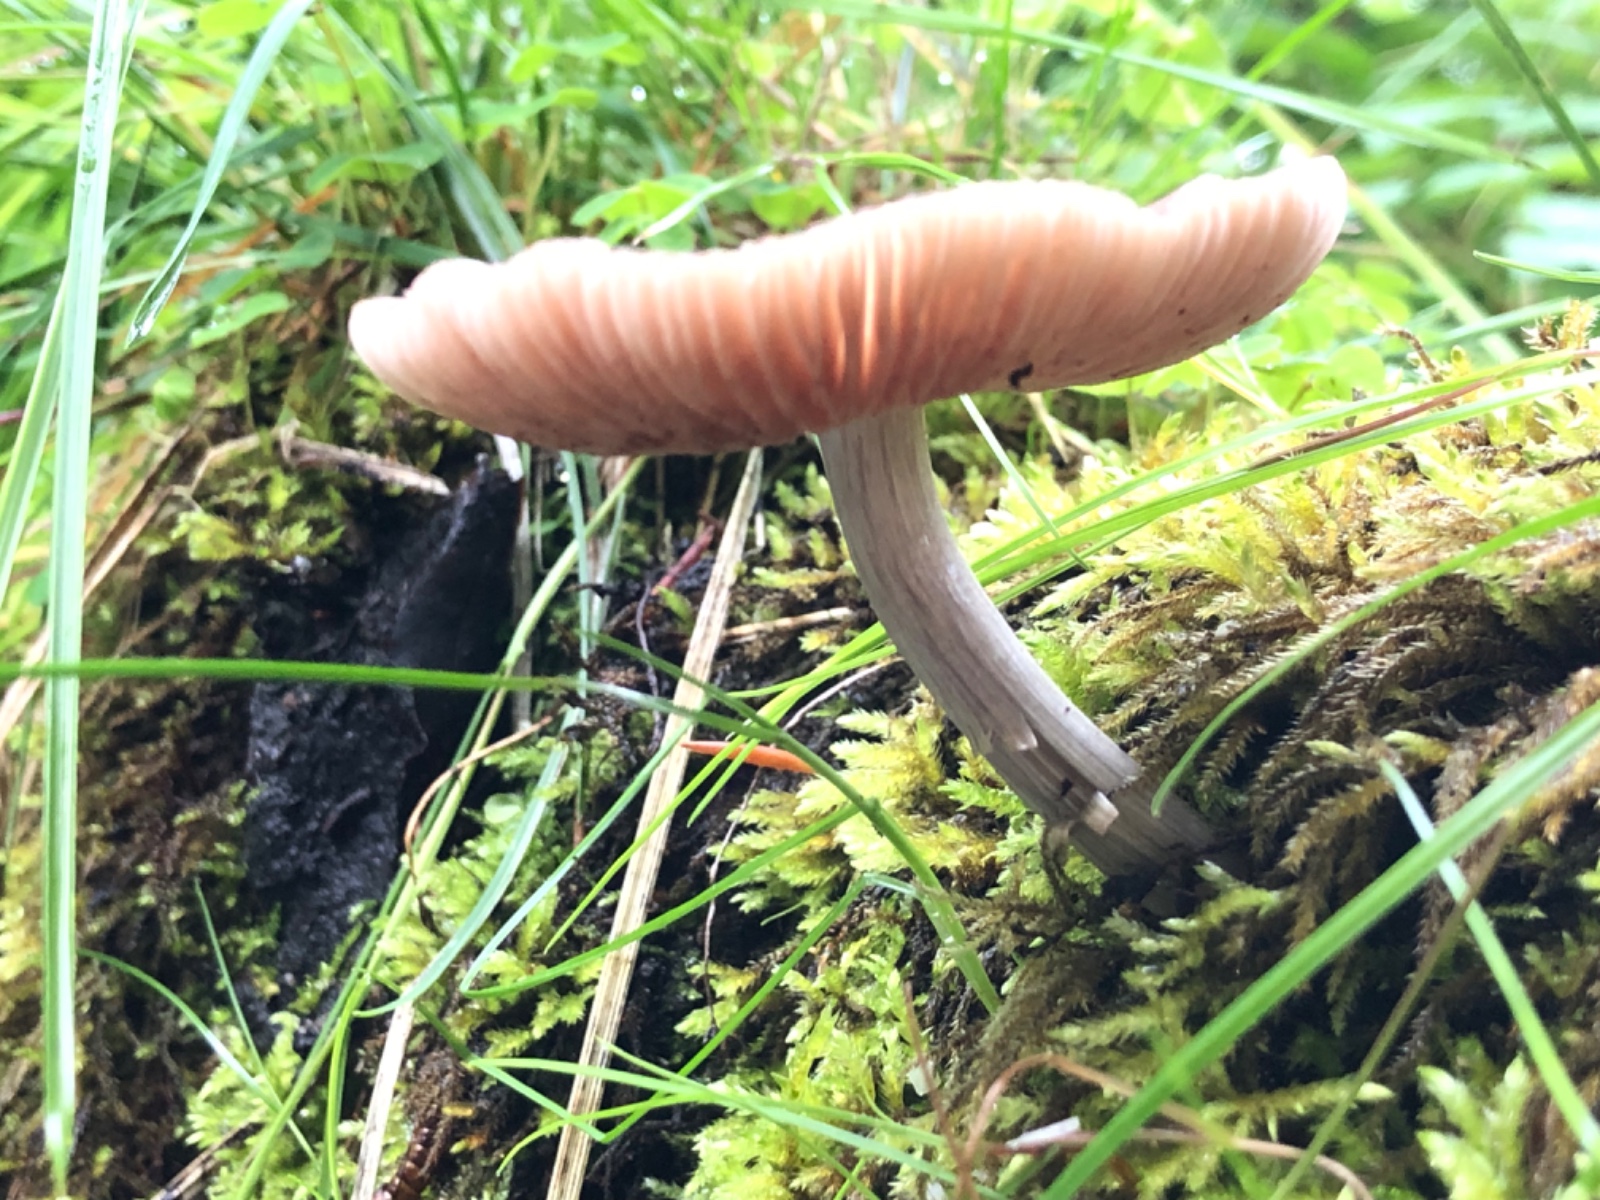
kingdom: Fungi
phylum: Basidiomycota
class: Agaricomycetes
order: Agaricales
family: Pluteaceae
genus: Pluteus
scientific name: Pluteus
